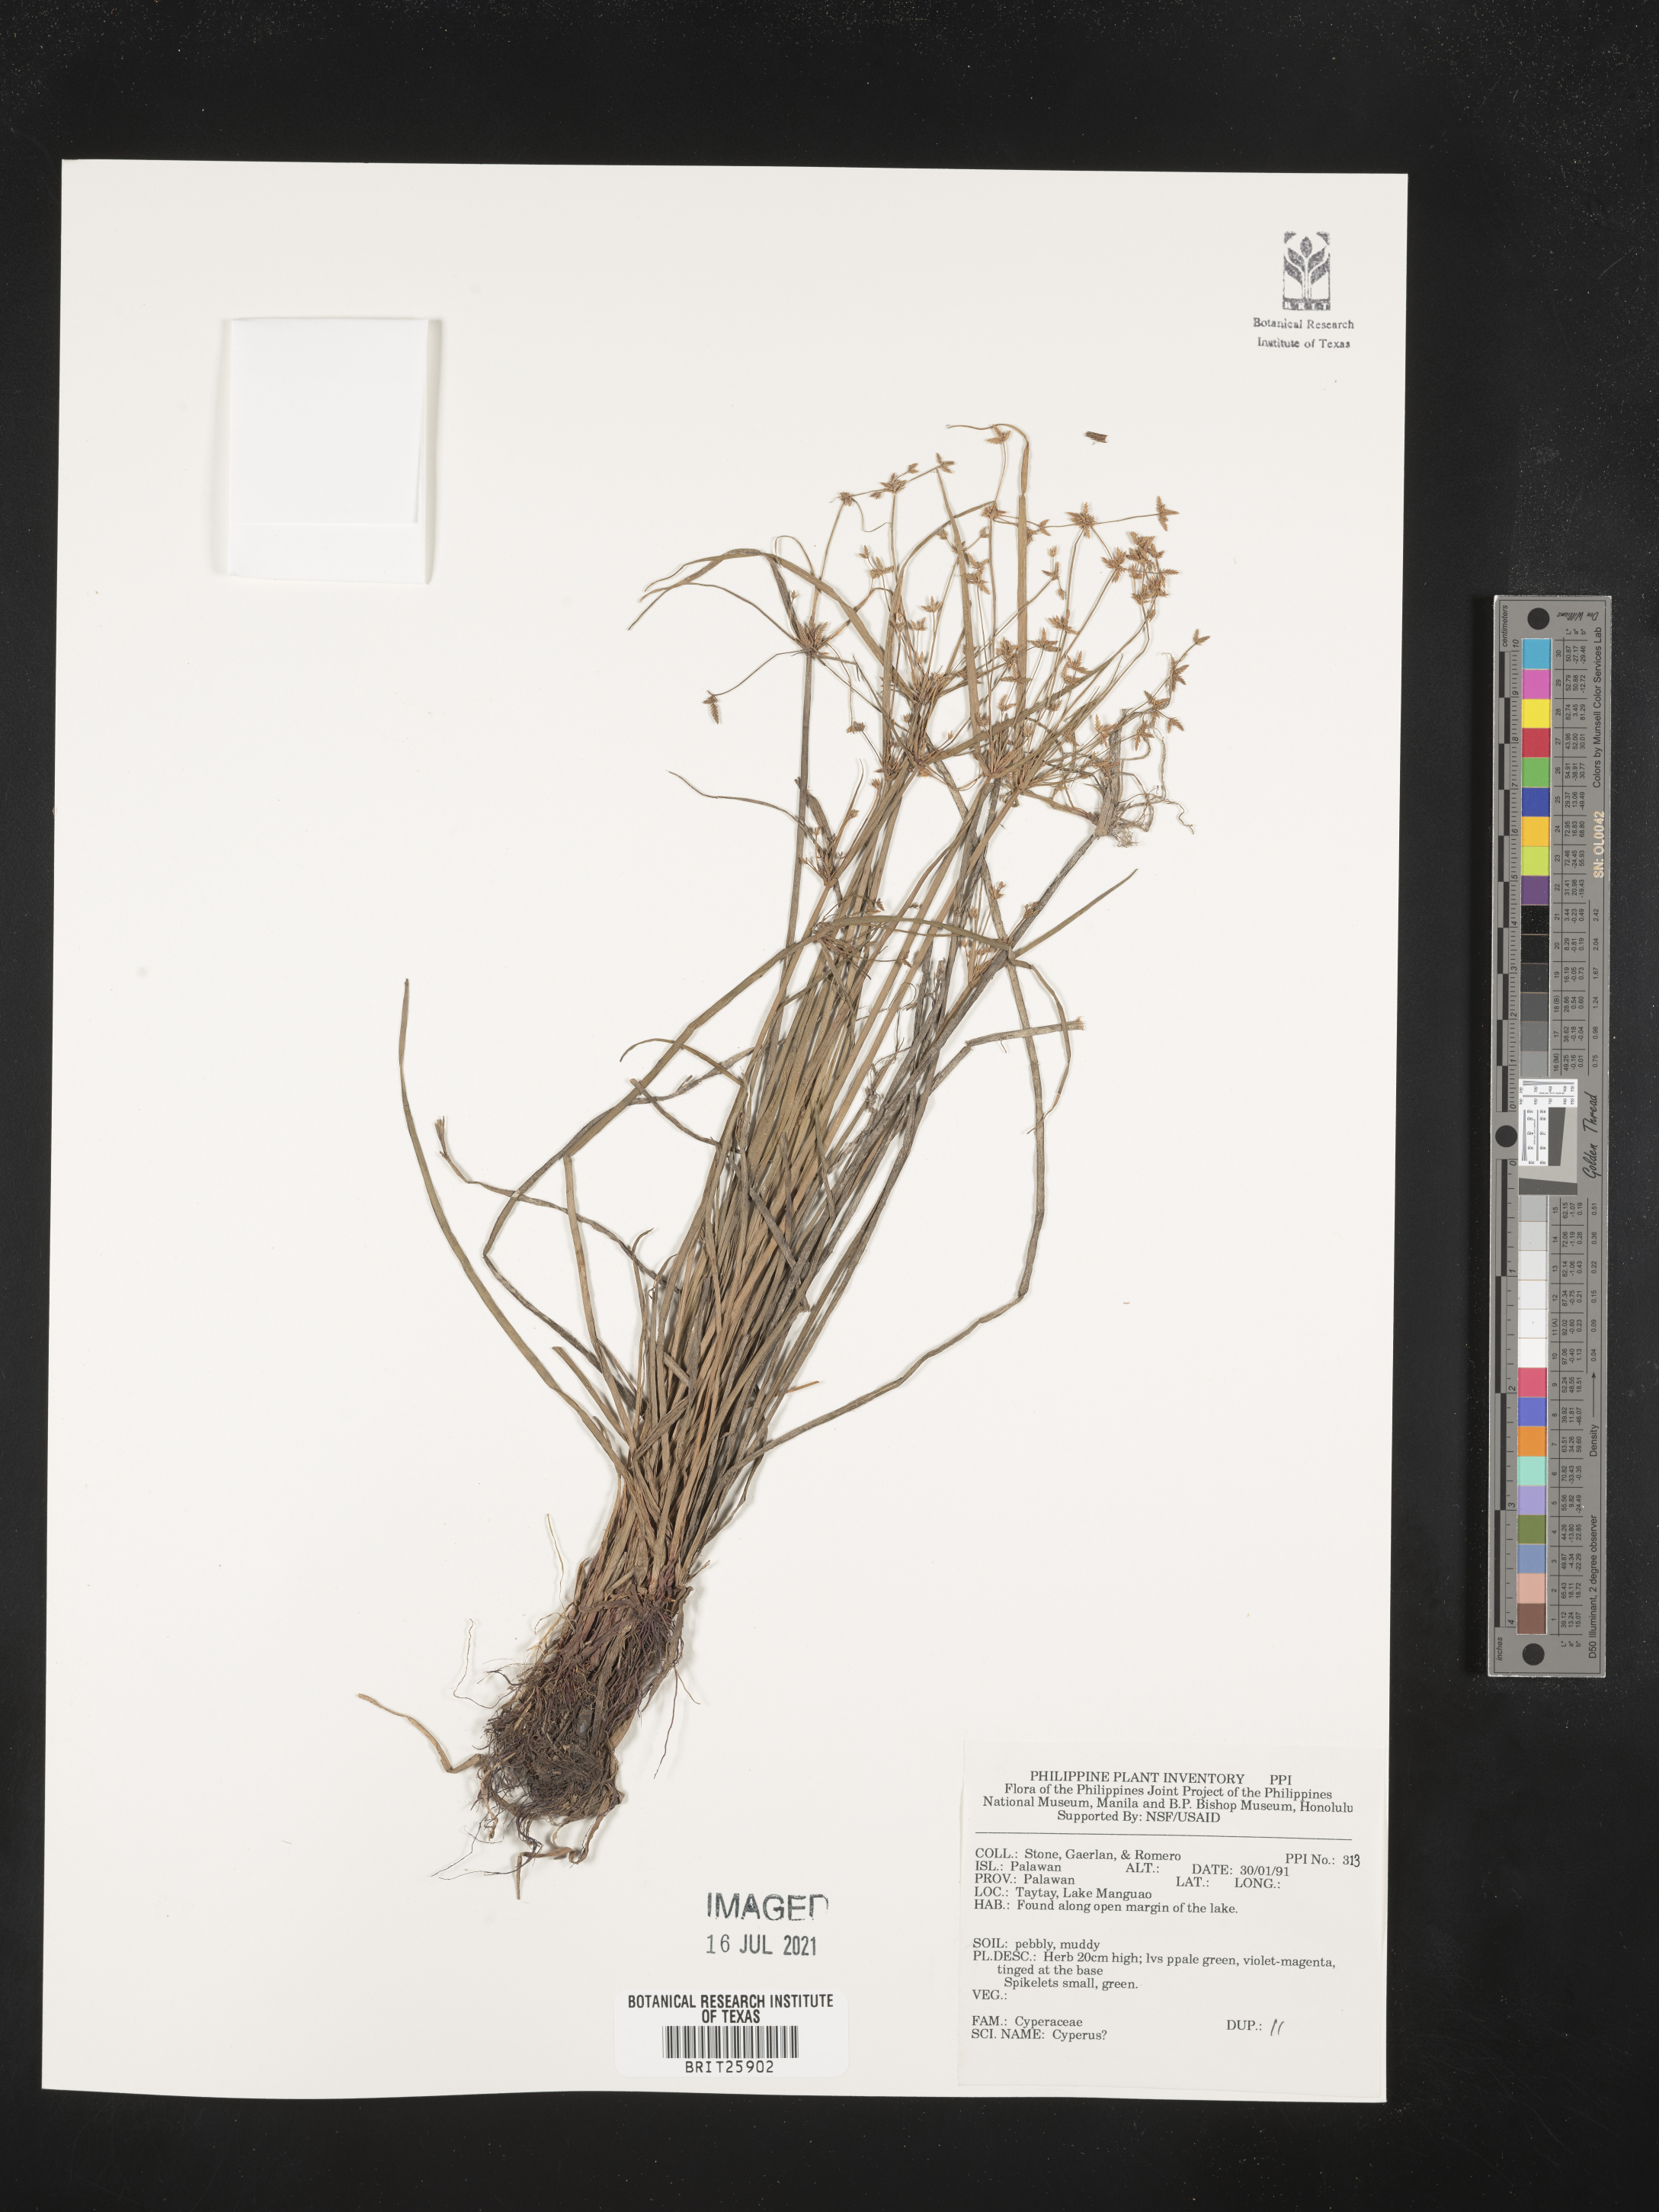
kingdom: Plantae
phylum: Tracheophyta
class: Liliopsida
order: Poales
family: Cyperaceae
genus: Cyperus
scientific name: Cyperus
